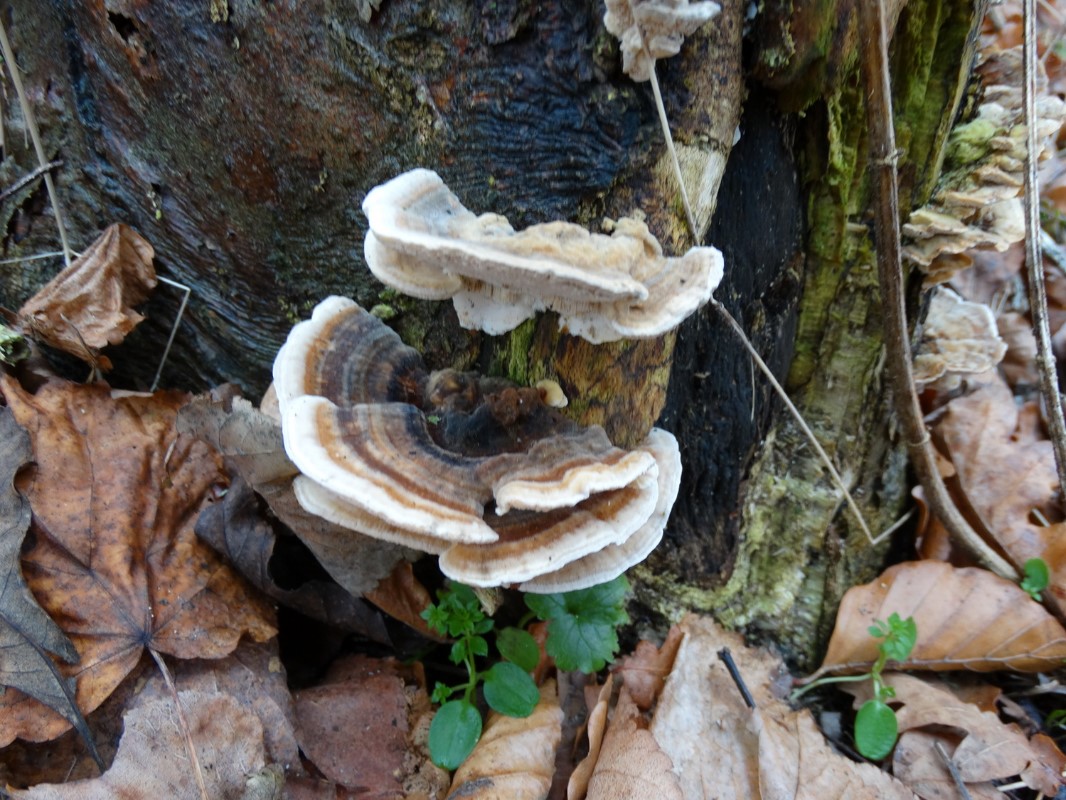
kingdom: Fungi
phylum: Basidiomycota
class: Agaricomycetes
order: Polyporales
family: Polyporaceae
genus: Trametes
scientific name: Trametes versicolor
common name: broget læderporesvamp
